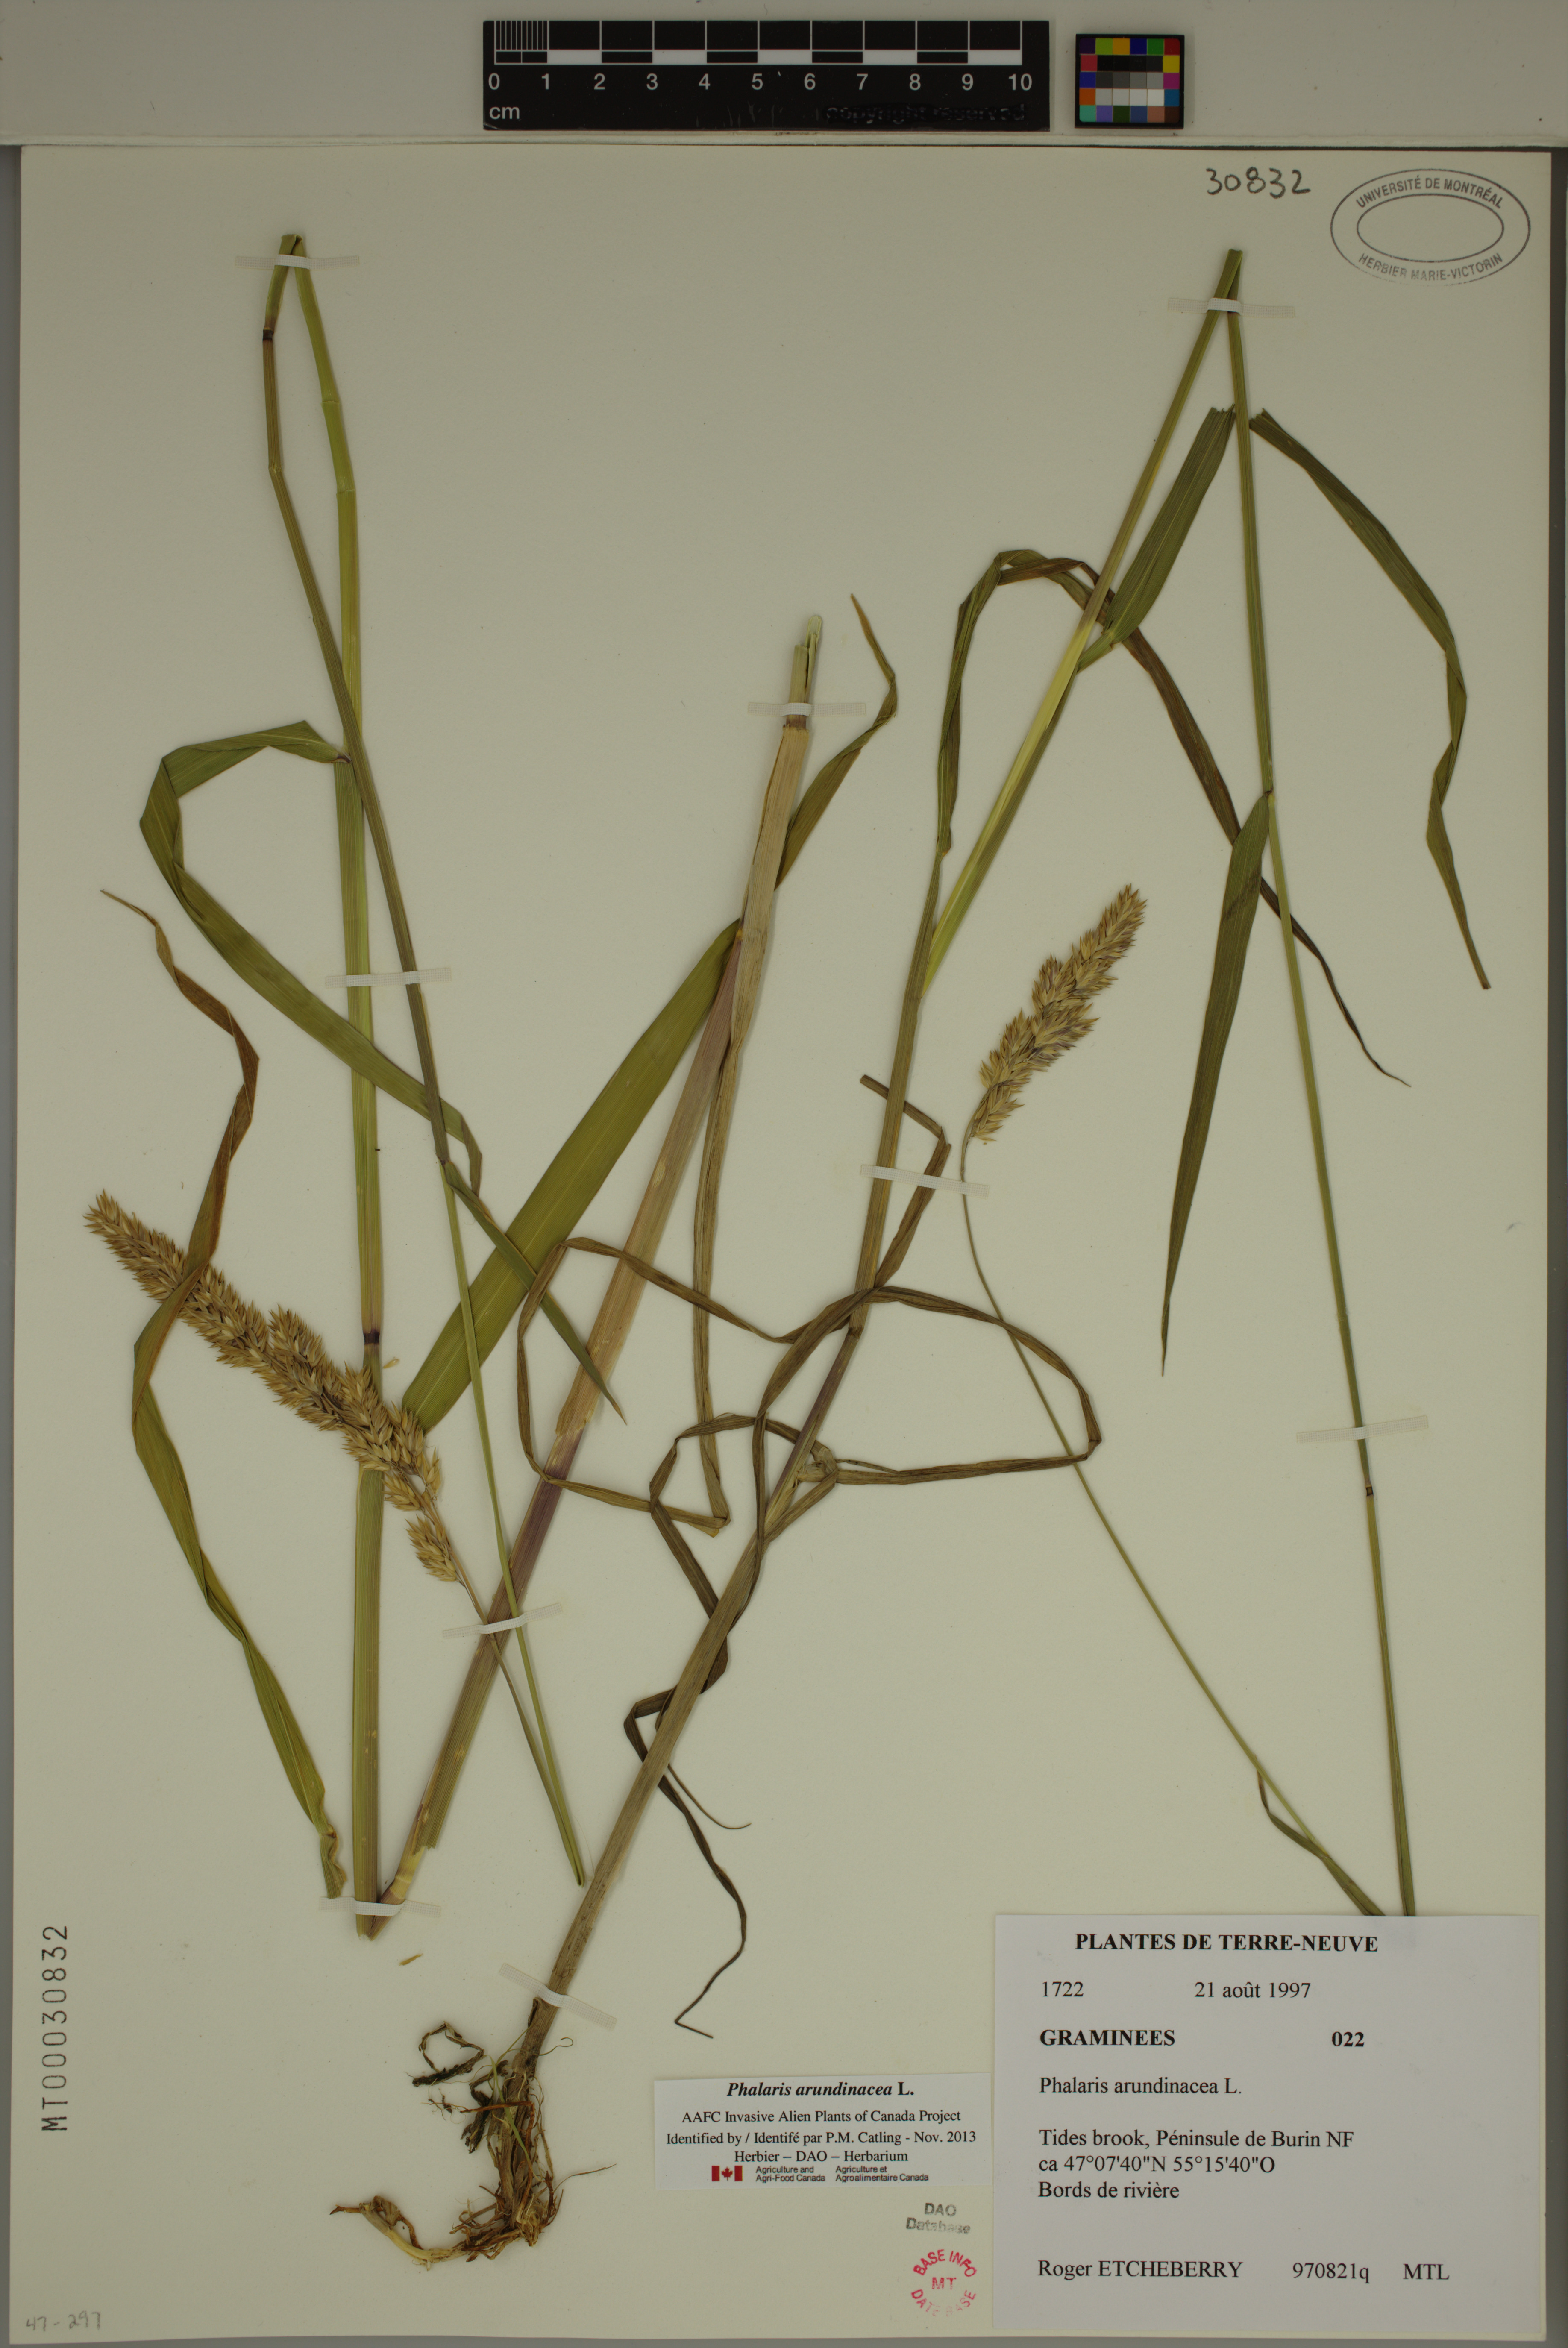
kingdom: Plantae
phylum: Tracheophyta
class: Liliopsida
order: Poales
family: Poaceae
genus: Phalaris
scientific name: Phalaris arundinacea
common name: Reed canary-grass
